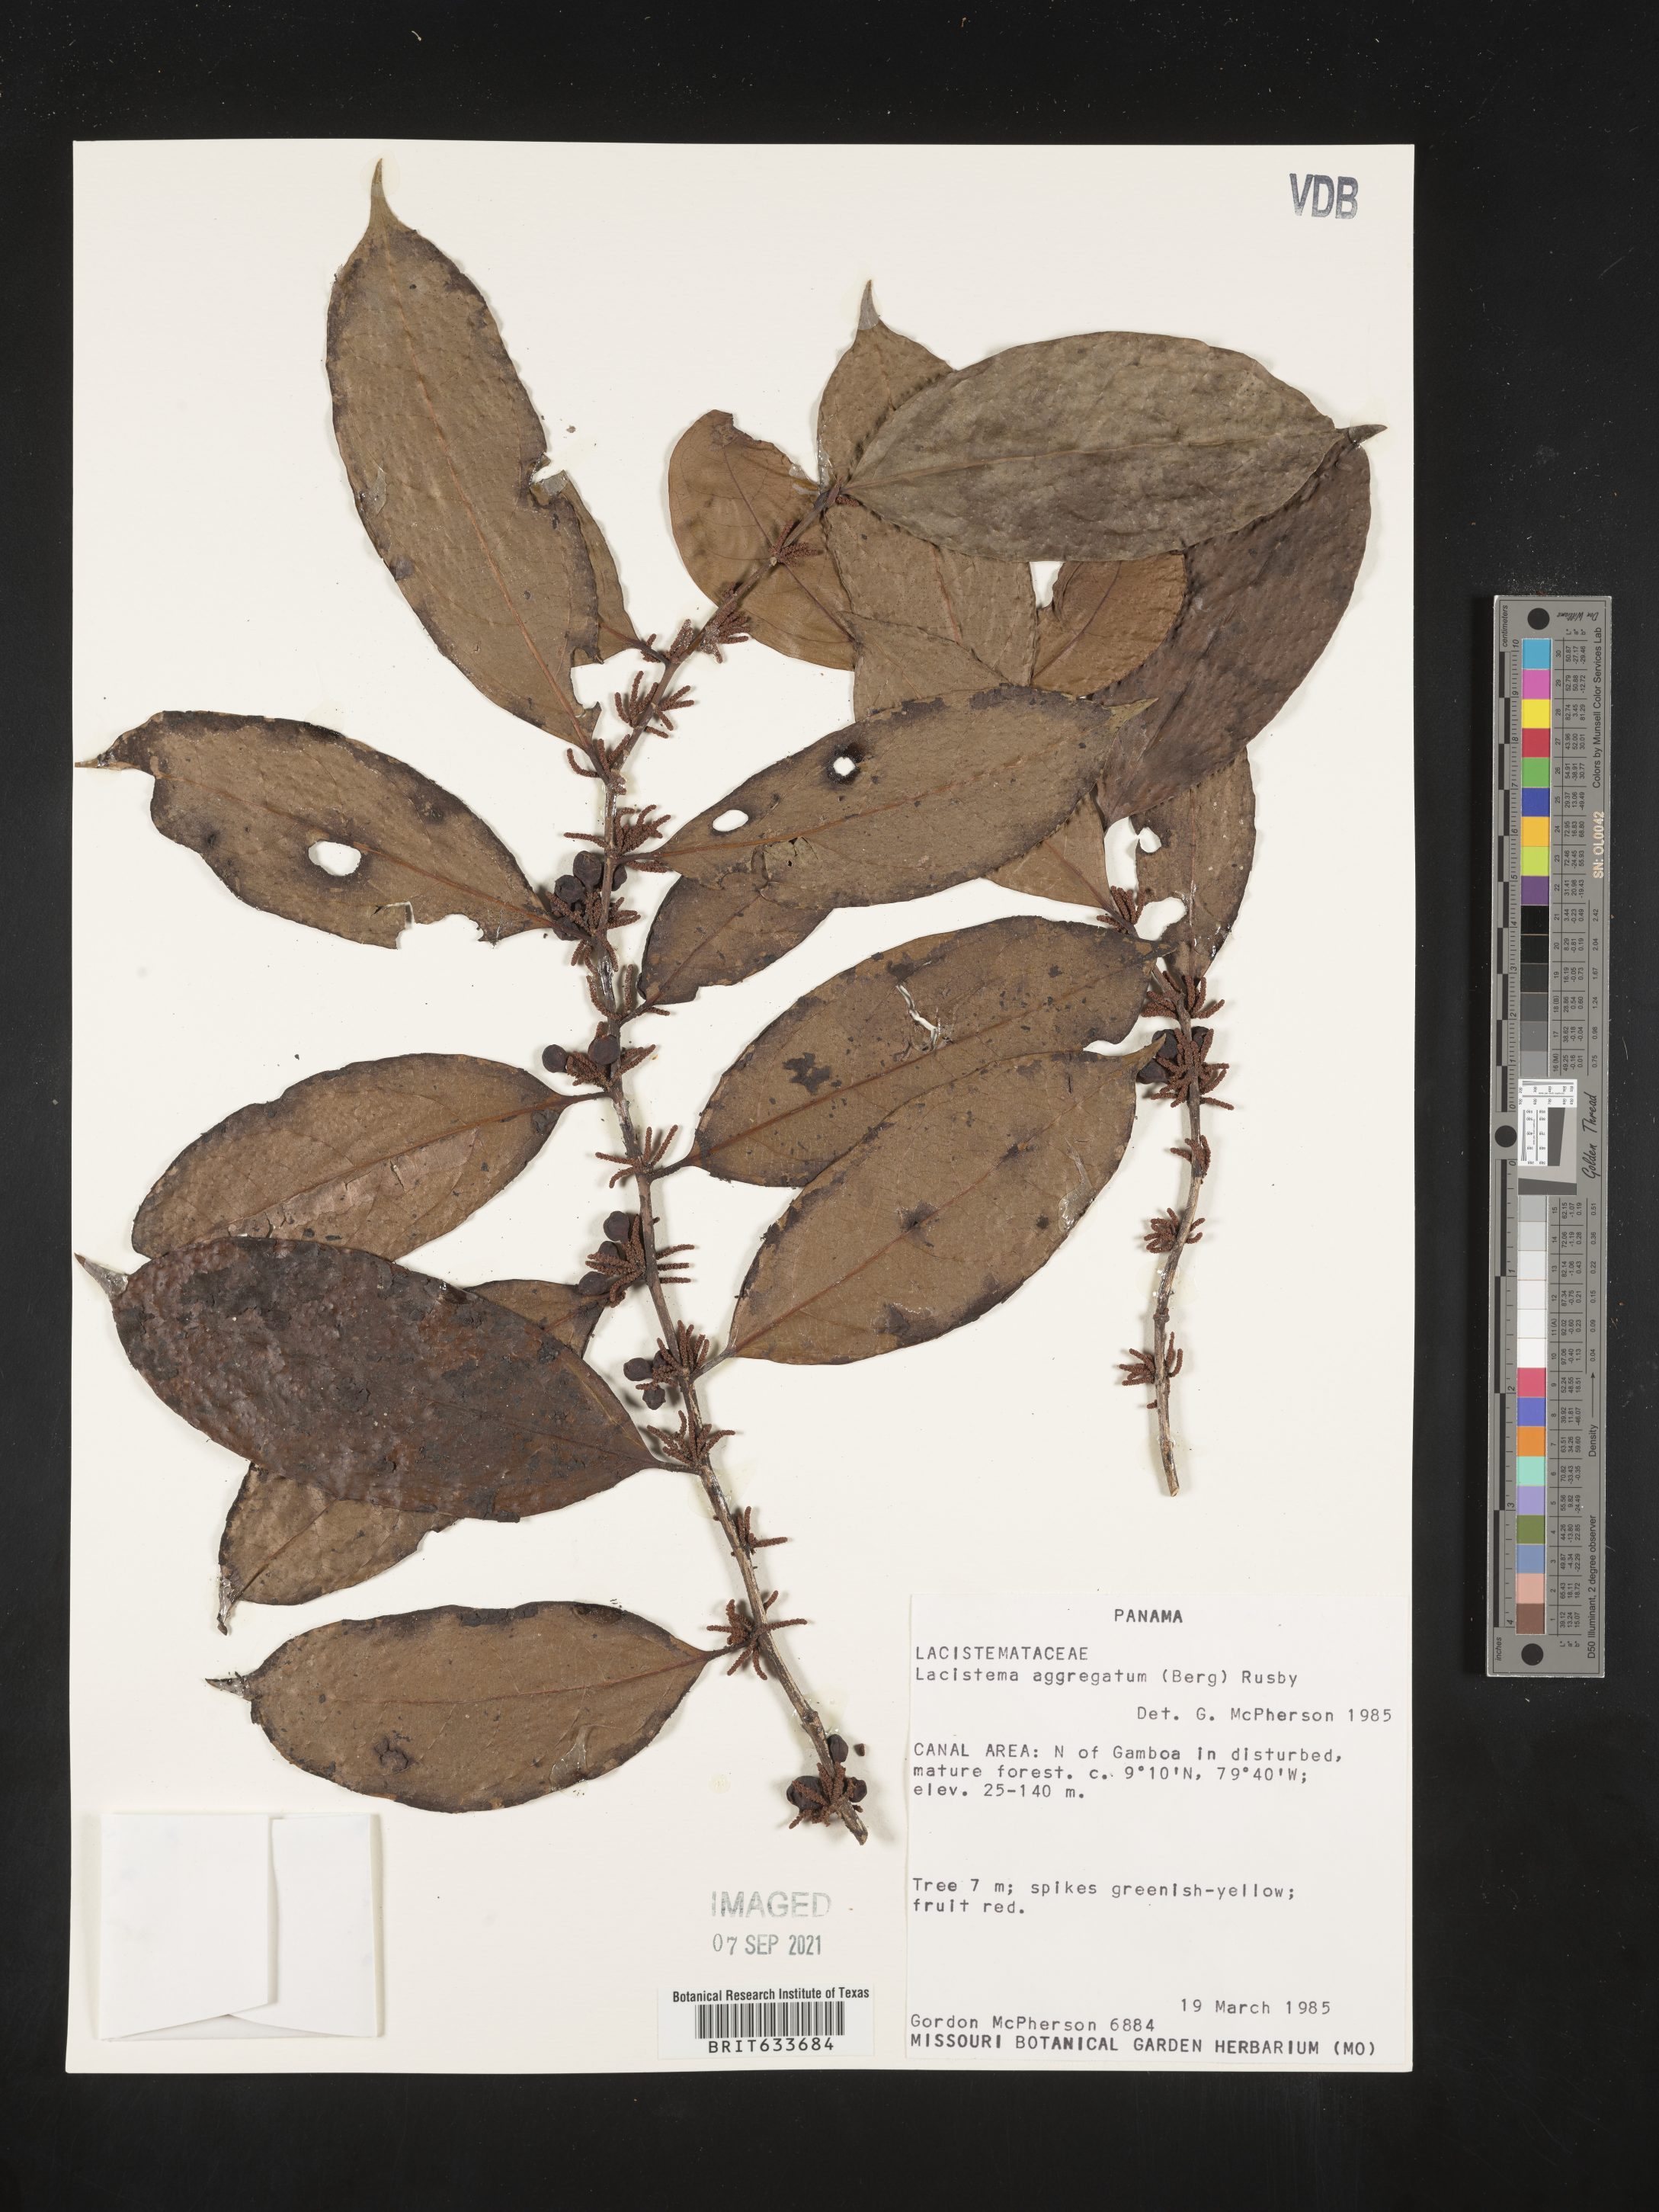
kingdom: Plantae
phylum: Tracheophyta
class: Magnoliopsida
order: Malpighiales
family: Lacistemataceae
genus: Lacistema
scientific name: Lacistema
